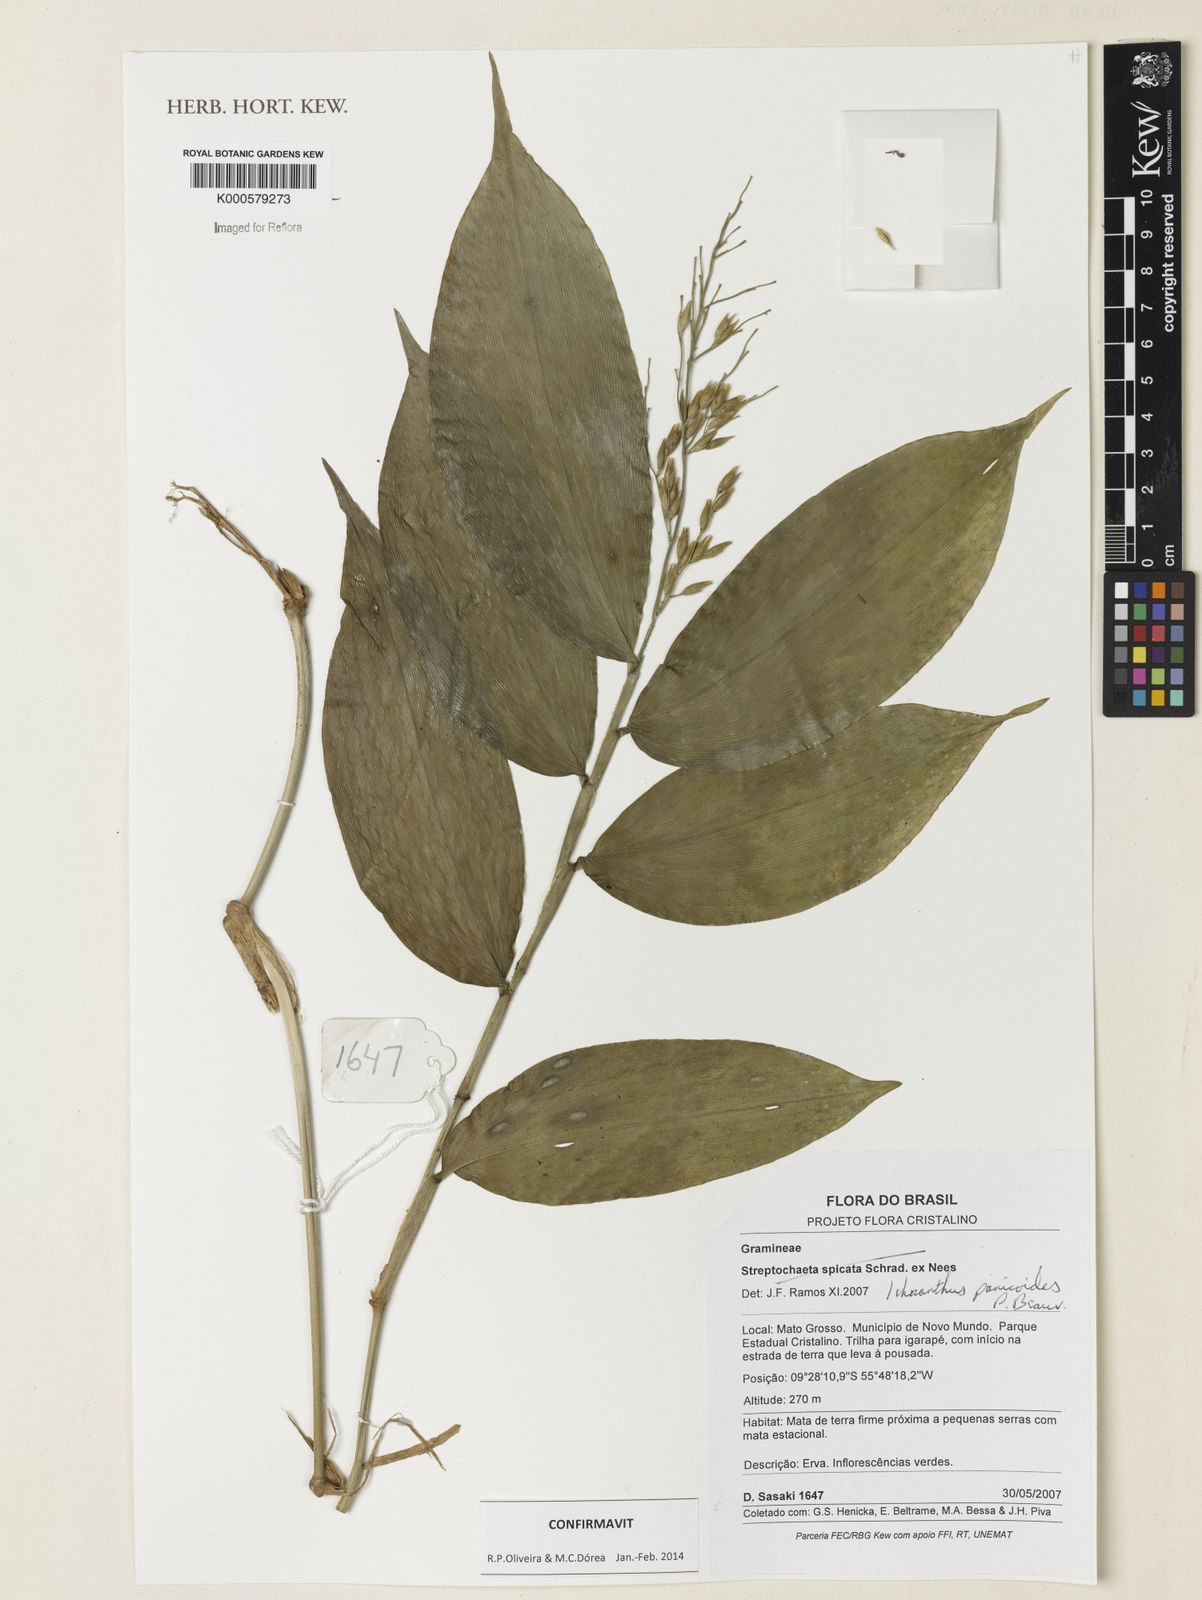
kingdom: Plantae
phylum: Tracheophyta
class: Liliopsida
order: Poales
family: Poaceae
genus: Ichnanthus
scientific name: Ichnanthus panicoides
